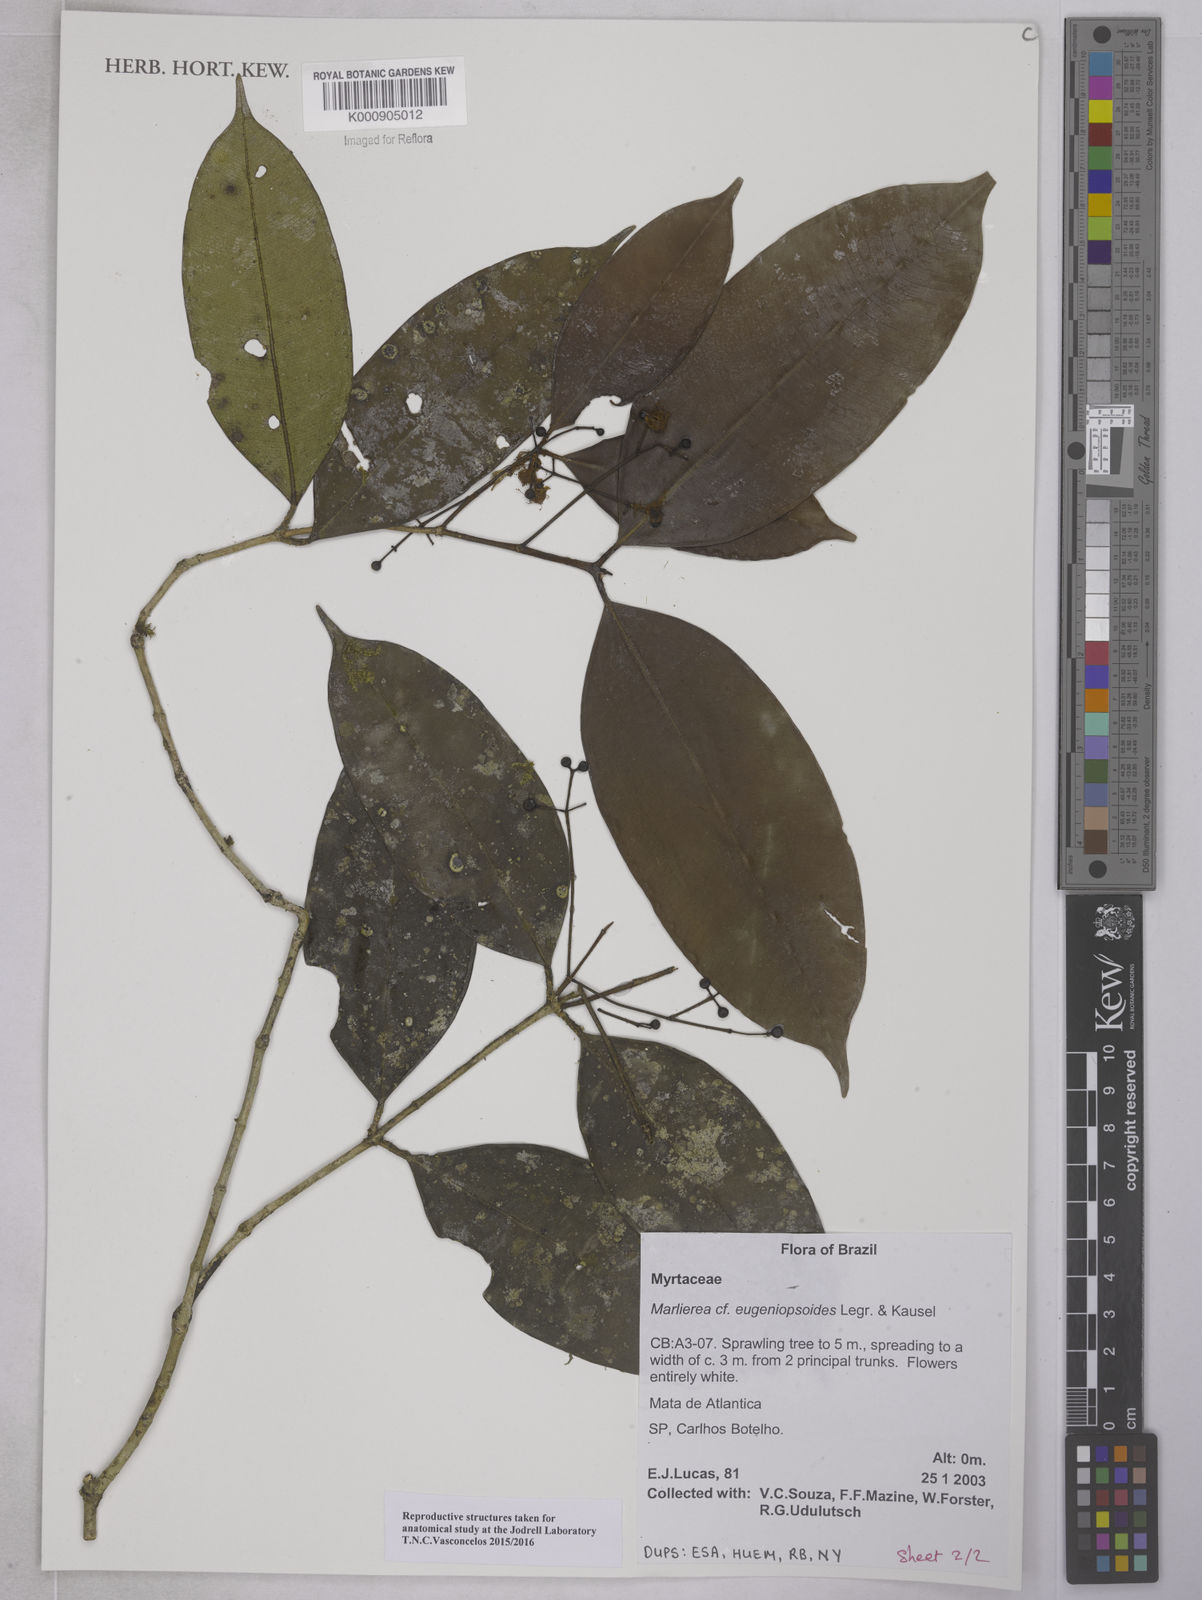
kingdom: Plantae
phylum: Tracheophyta
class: Magnoliopsida
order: Myrtales
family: Myrtaceae
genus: Myrcia
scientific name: Myrcia eugeniopsoides
